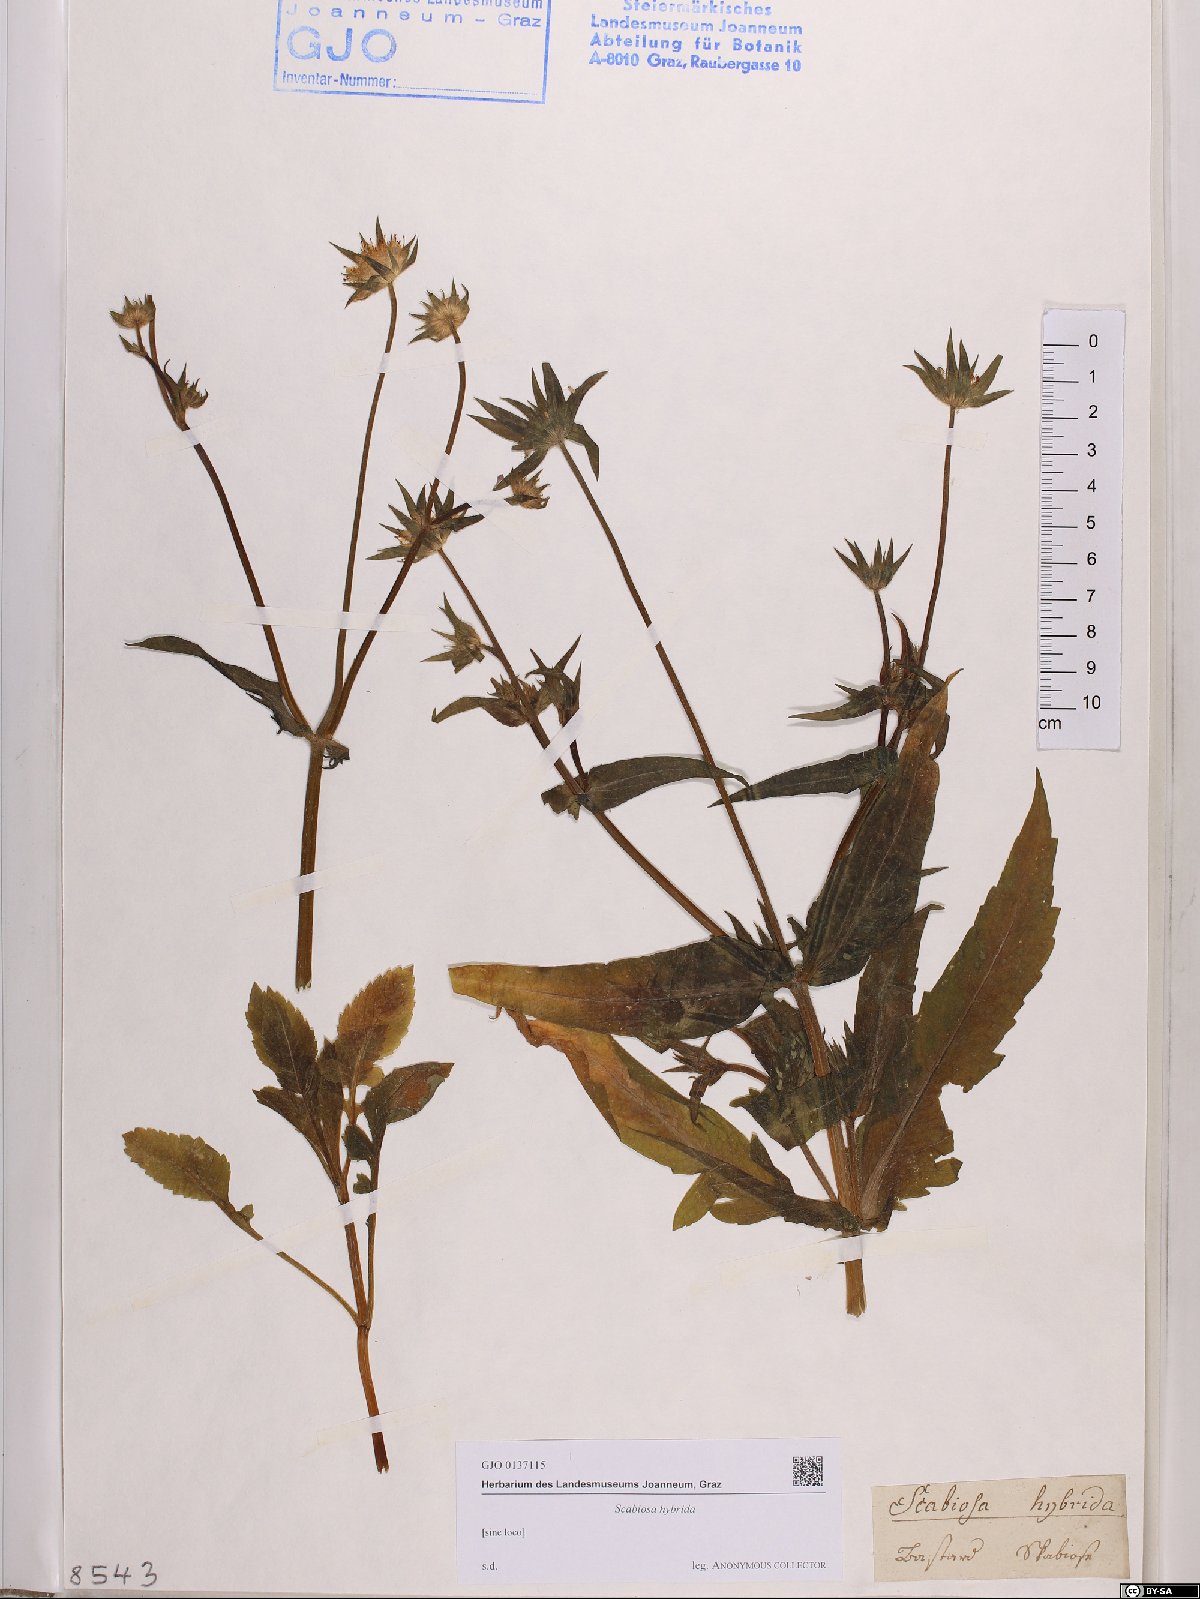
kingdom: Plantae
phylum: Tracheophyta
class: Magnoliopsida
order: Dipsacales
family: Caprifoliaceae
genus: Knautia
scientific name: Knautia integrifolia
